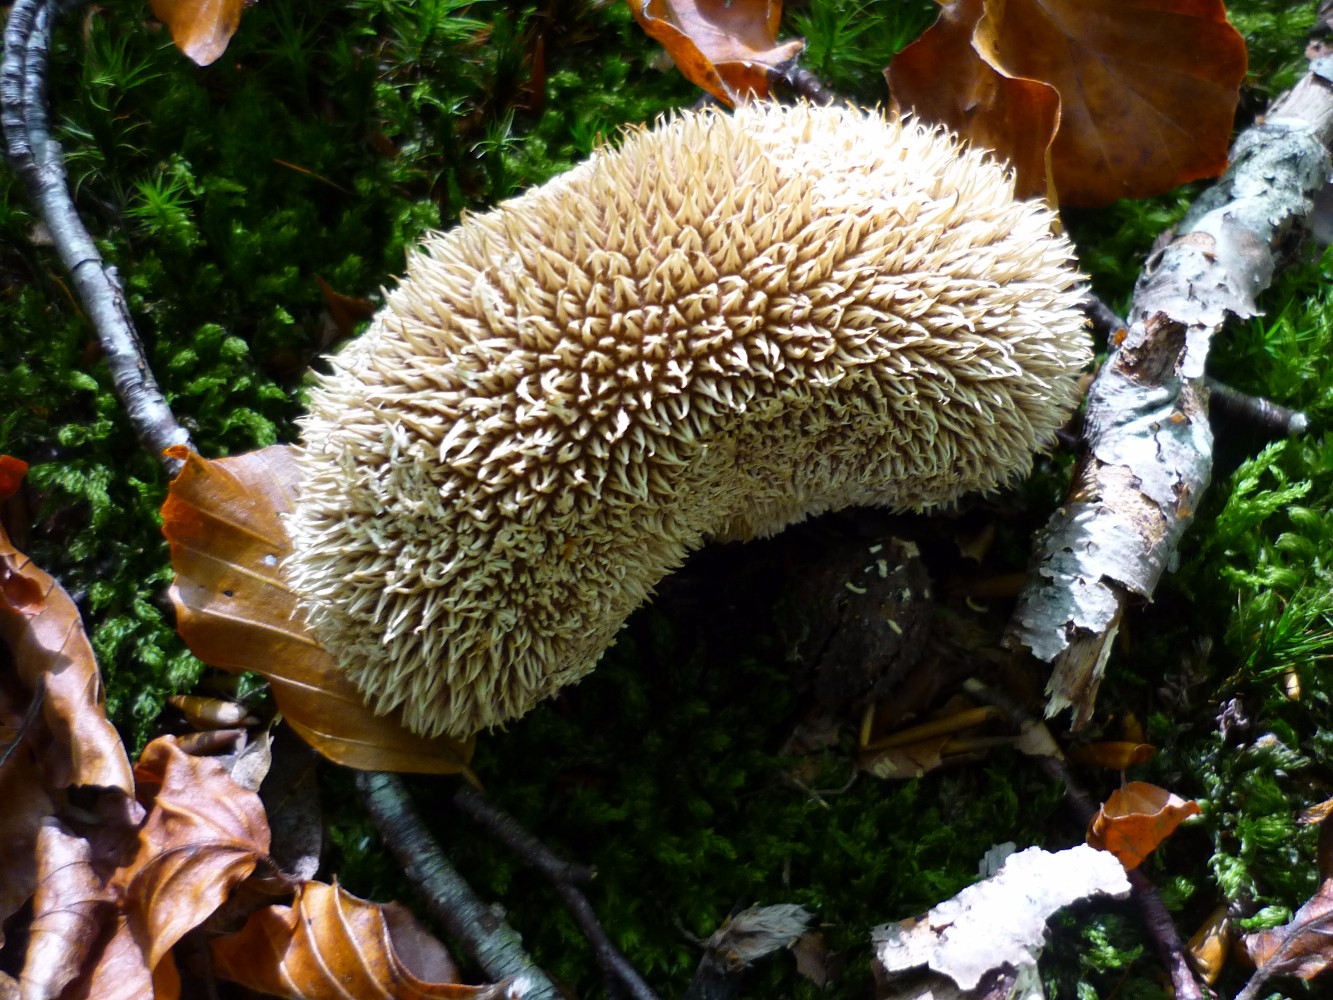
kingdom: Fungi
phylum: Basidiomycota
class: Agaricomycetes
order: Agaricales
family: Lycoperdaceae
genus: Lycoperdon
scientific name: Lycoperdon echinatum
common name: pindsvine-støvbold
